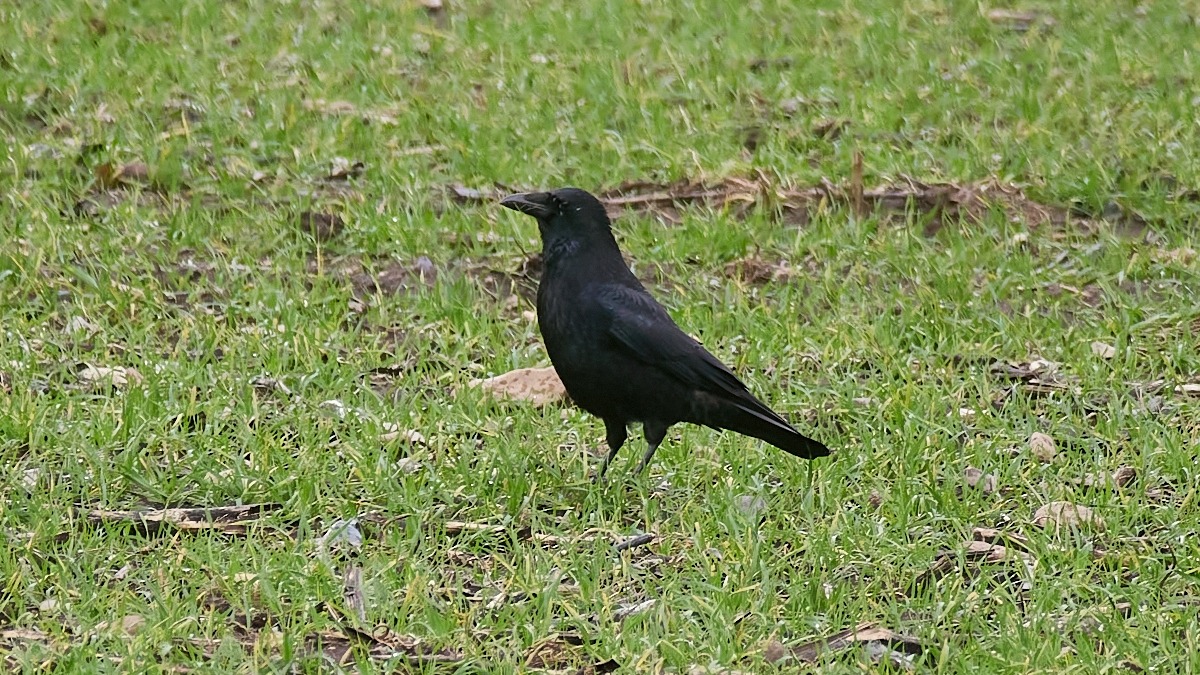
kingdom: Animalia
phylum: Chordata
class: Aves
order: Passeriformes
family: Corvidae
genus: Corvus
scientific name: Corvus corone
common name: Sortkrage
